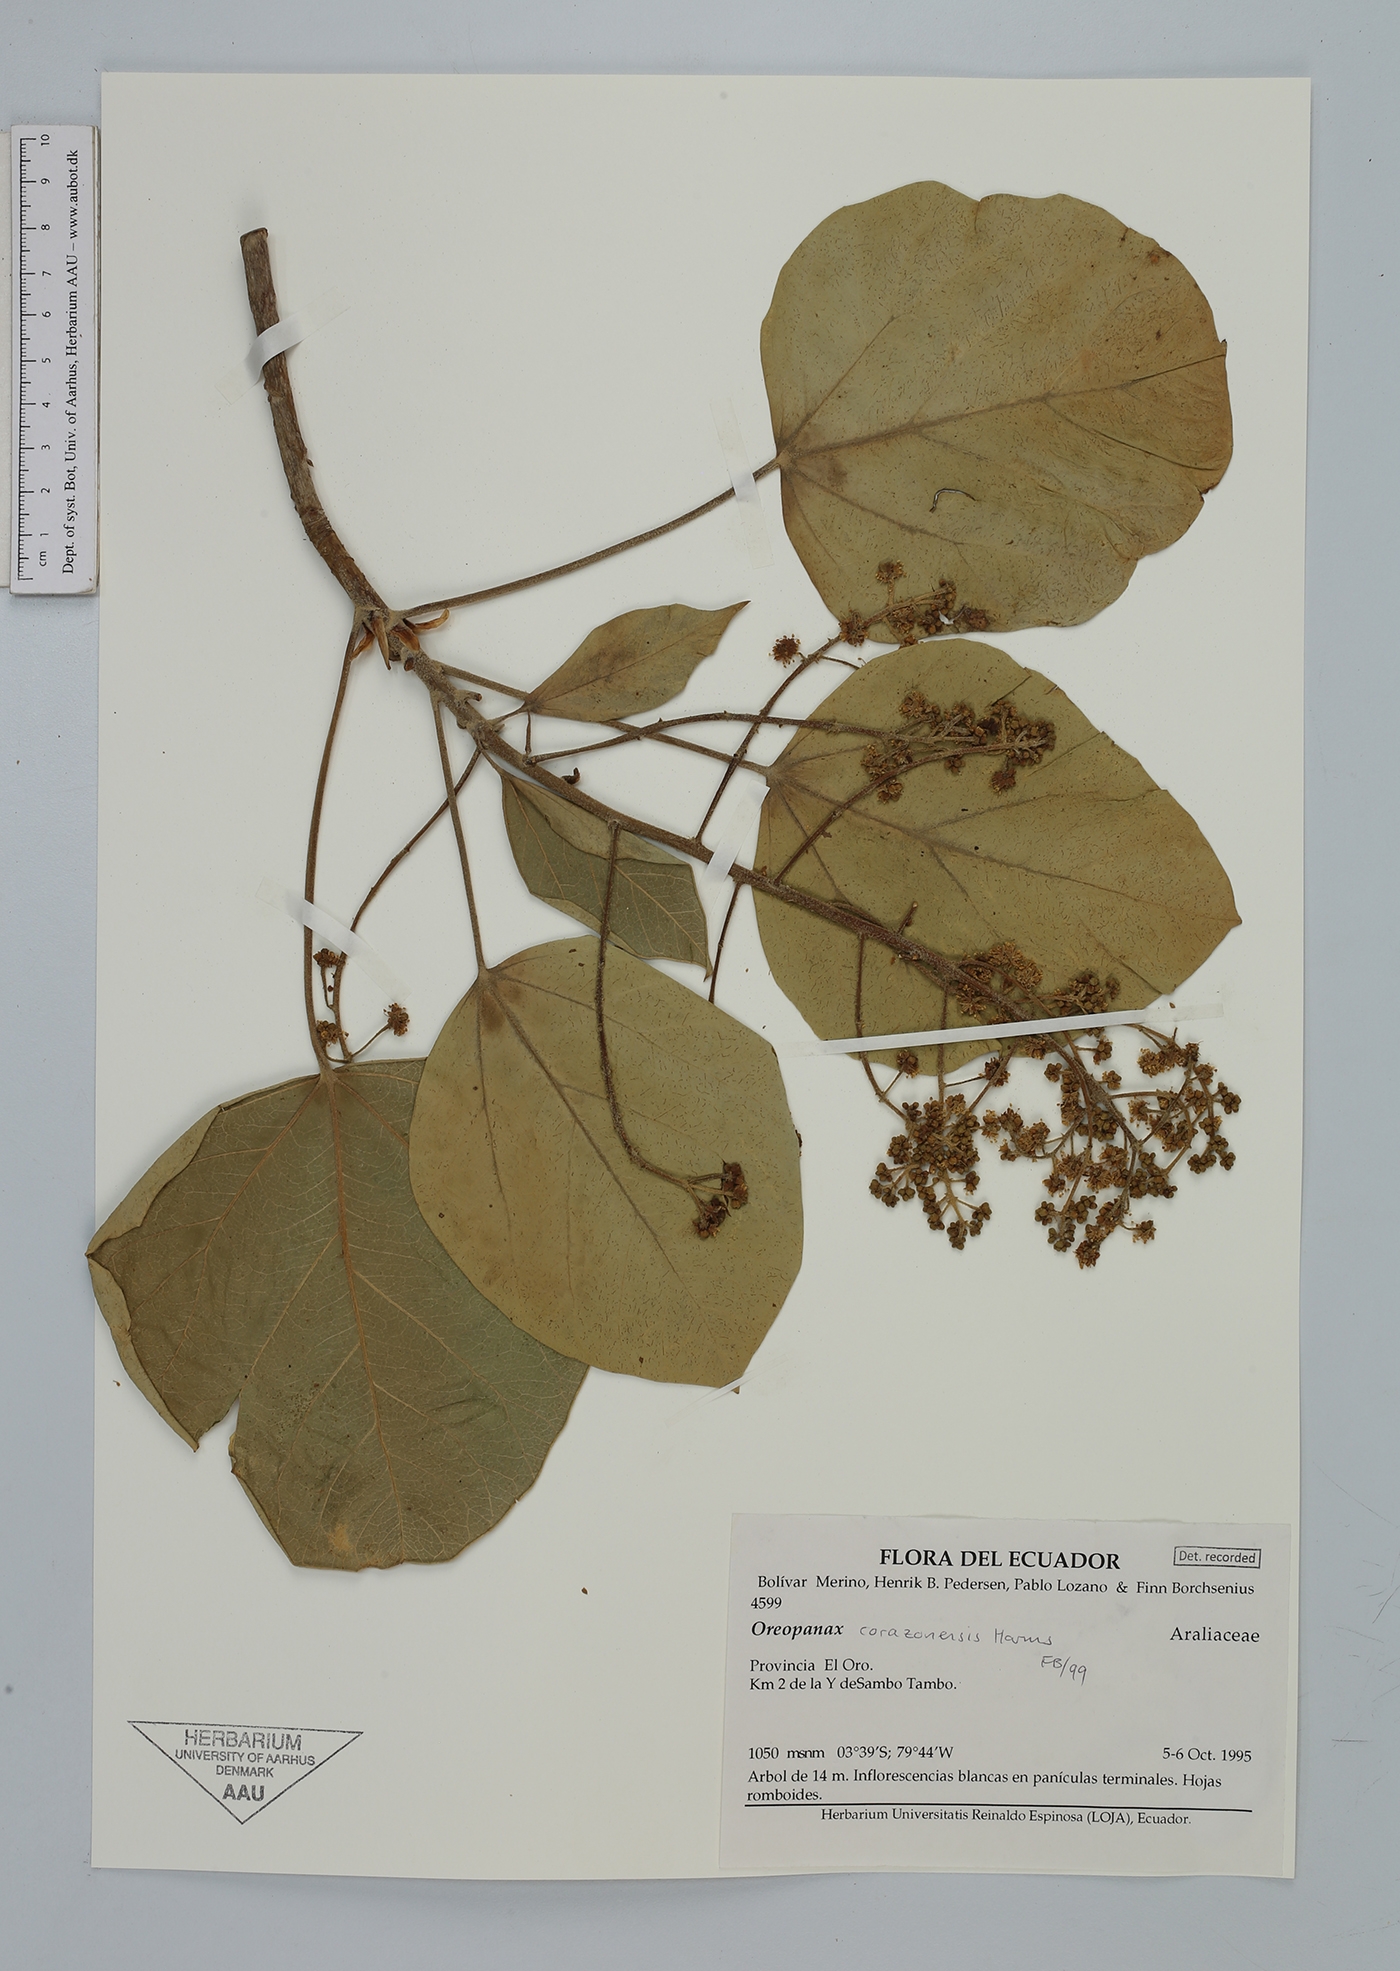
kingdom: Plantae
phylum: Tracheophyta
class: Magnoliopsida
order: Apiales
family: Araliaceae
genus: Oreopanax
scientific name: Oreopanax corazonensis
